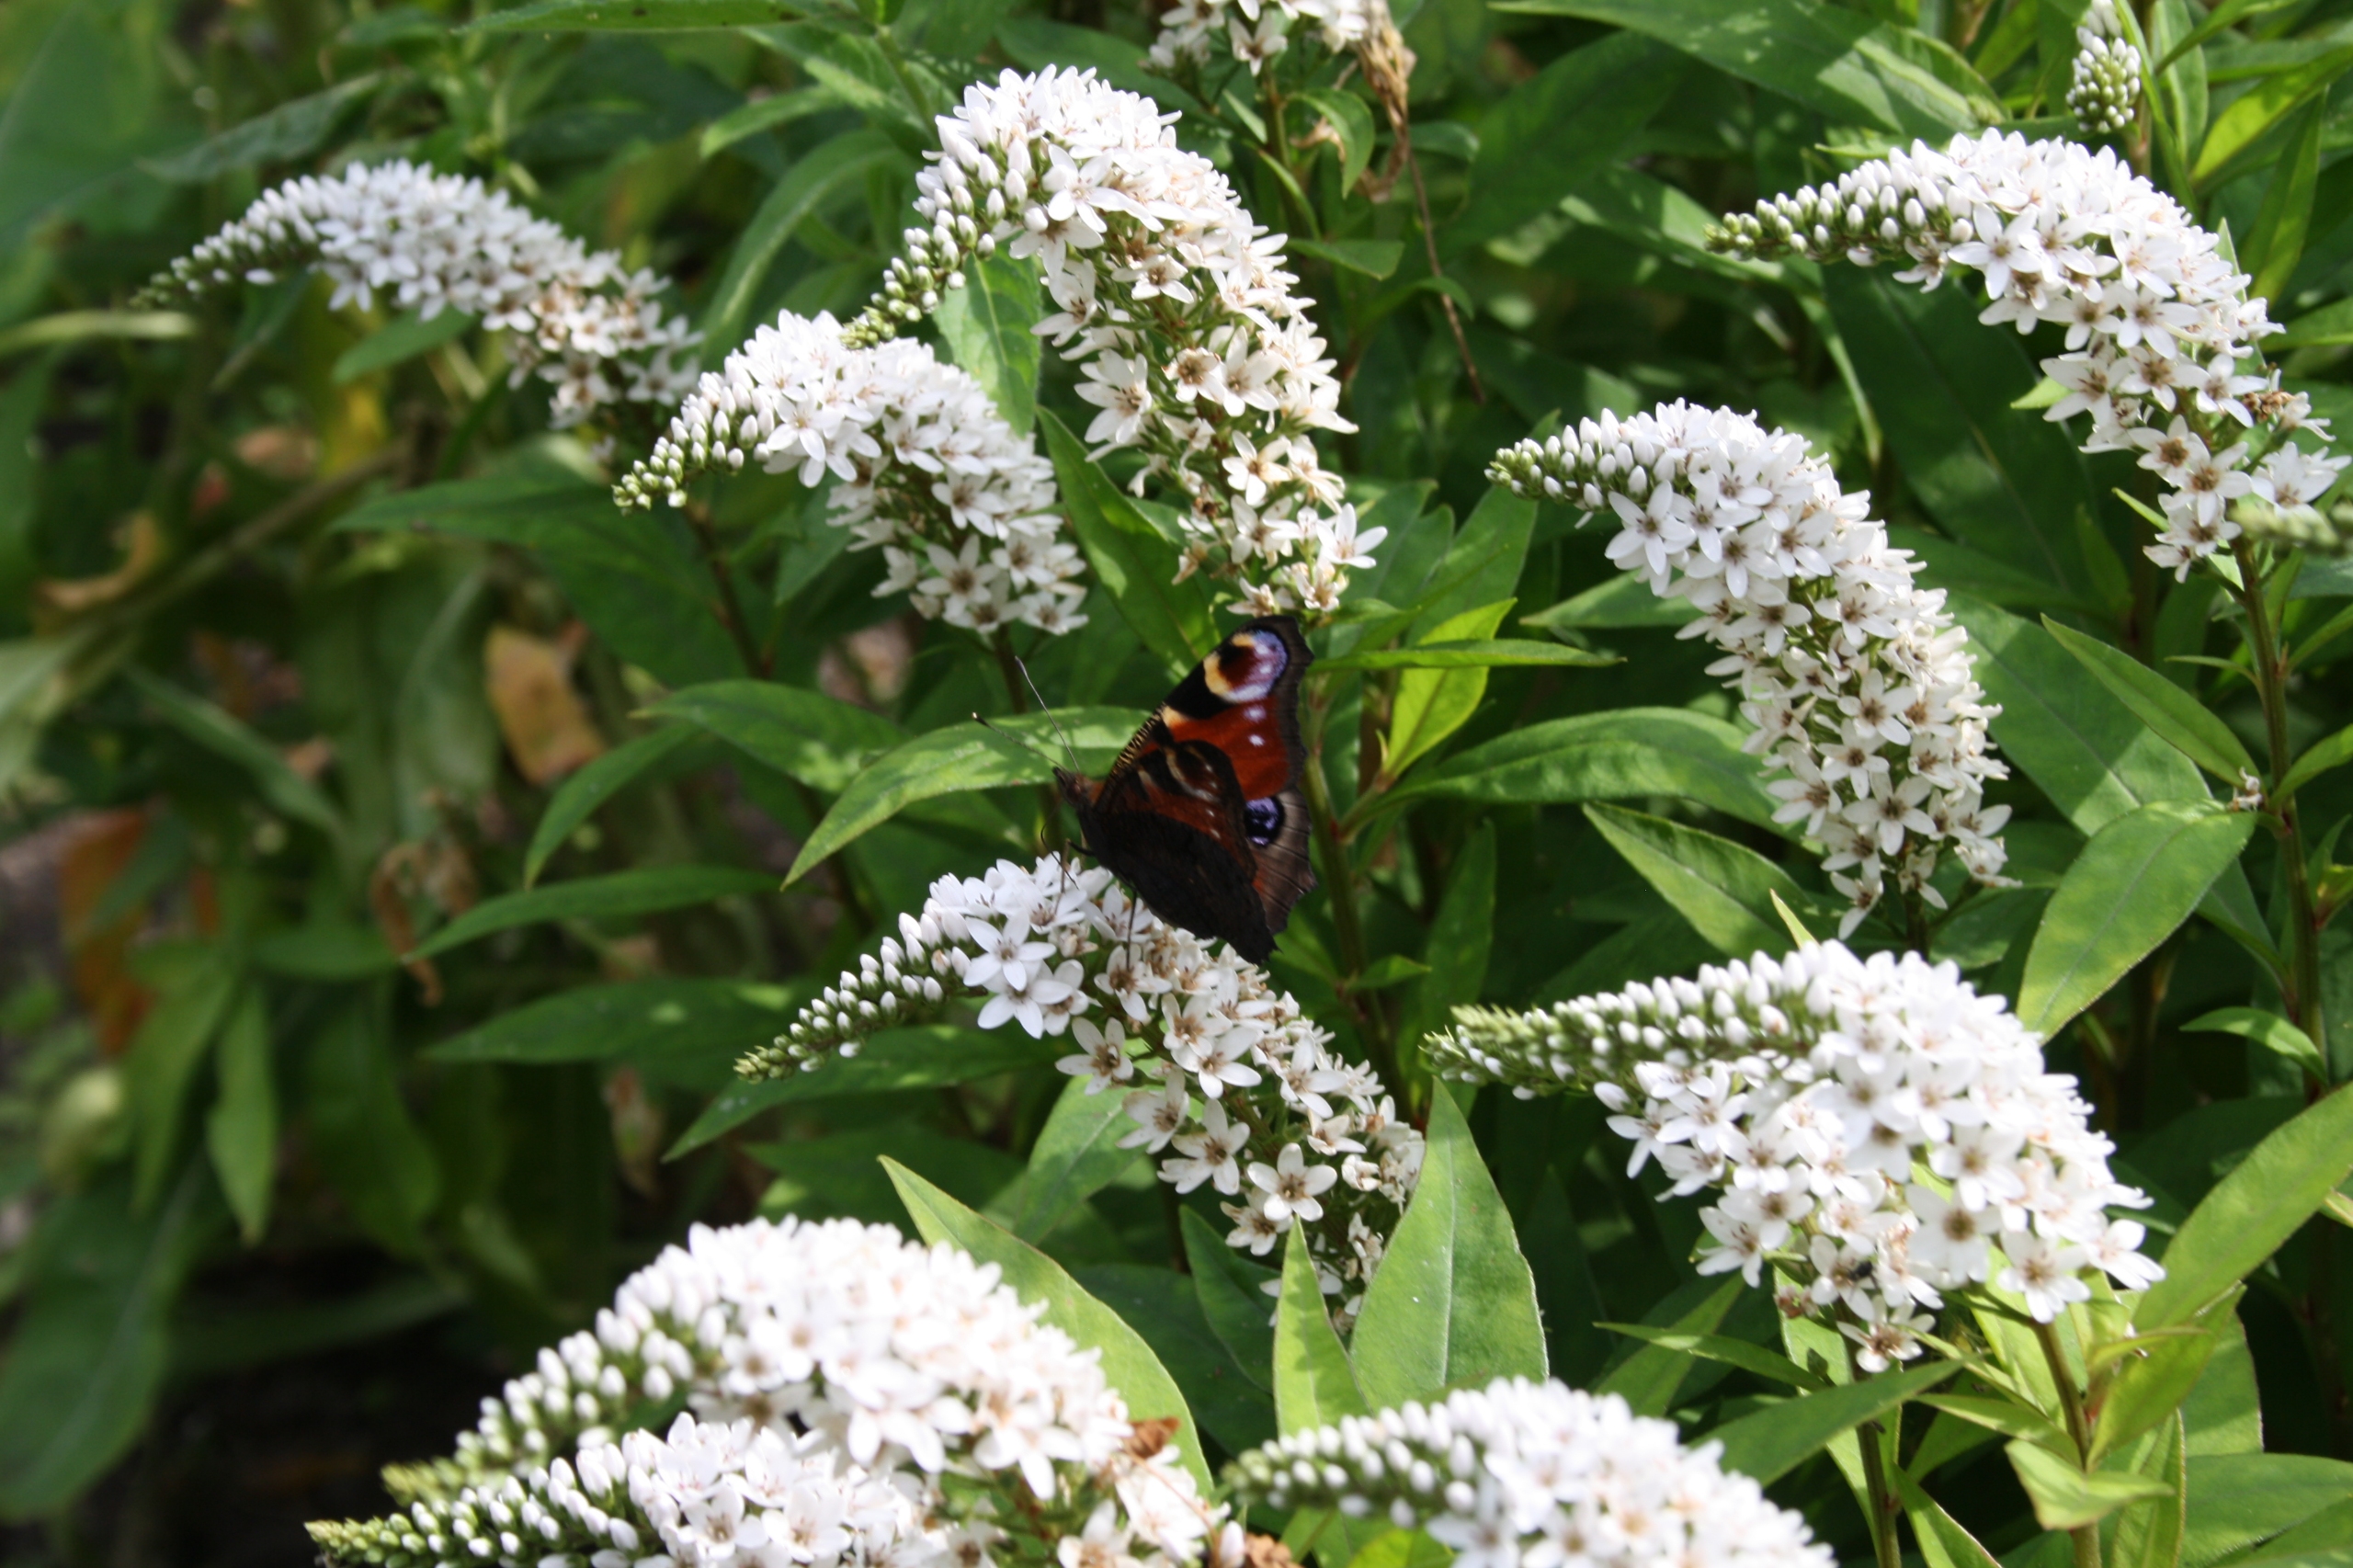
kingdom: Animalia
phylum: Arthropoda
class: Insecta
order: Lepidoptera
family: Nymphalidae
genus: Aglais
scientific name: Aglais io
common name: Dagpåfugleøje
